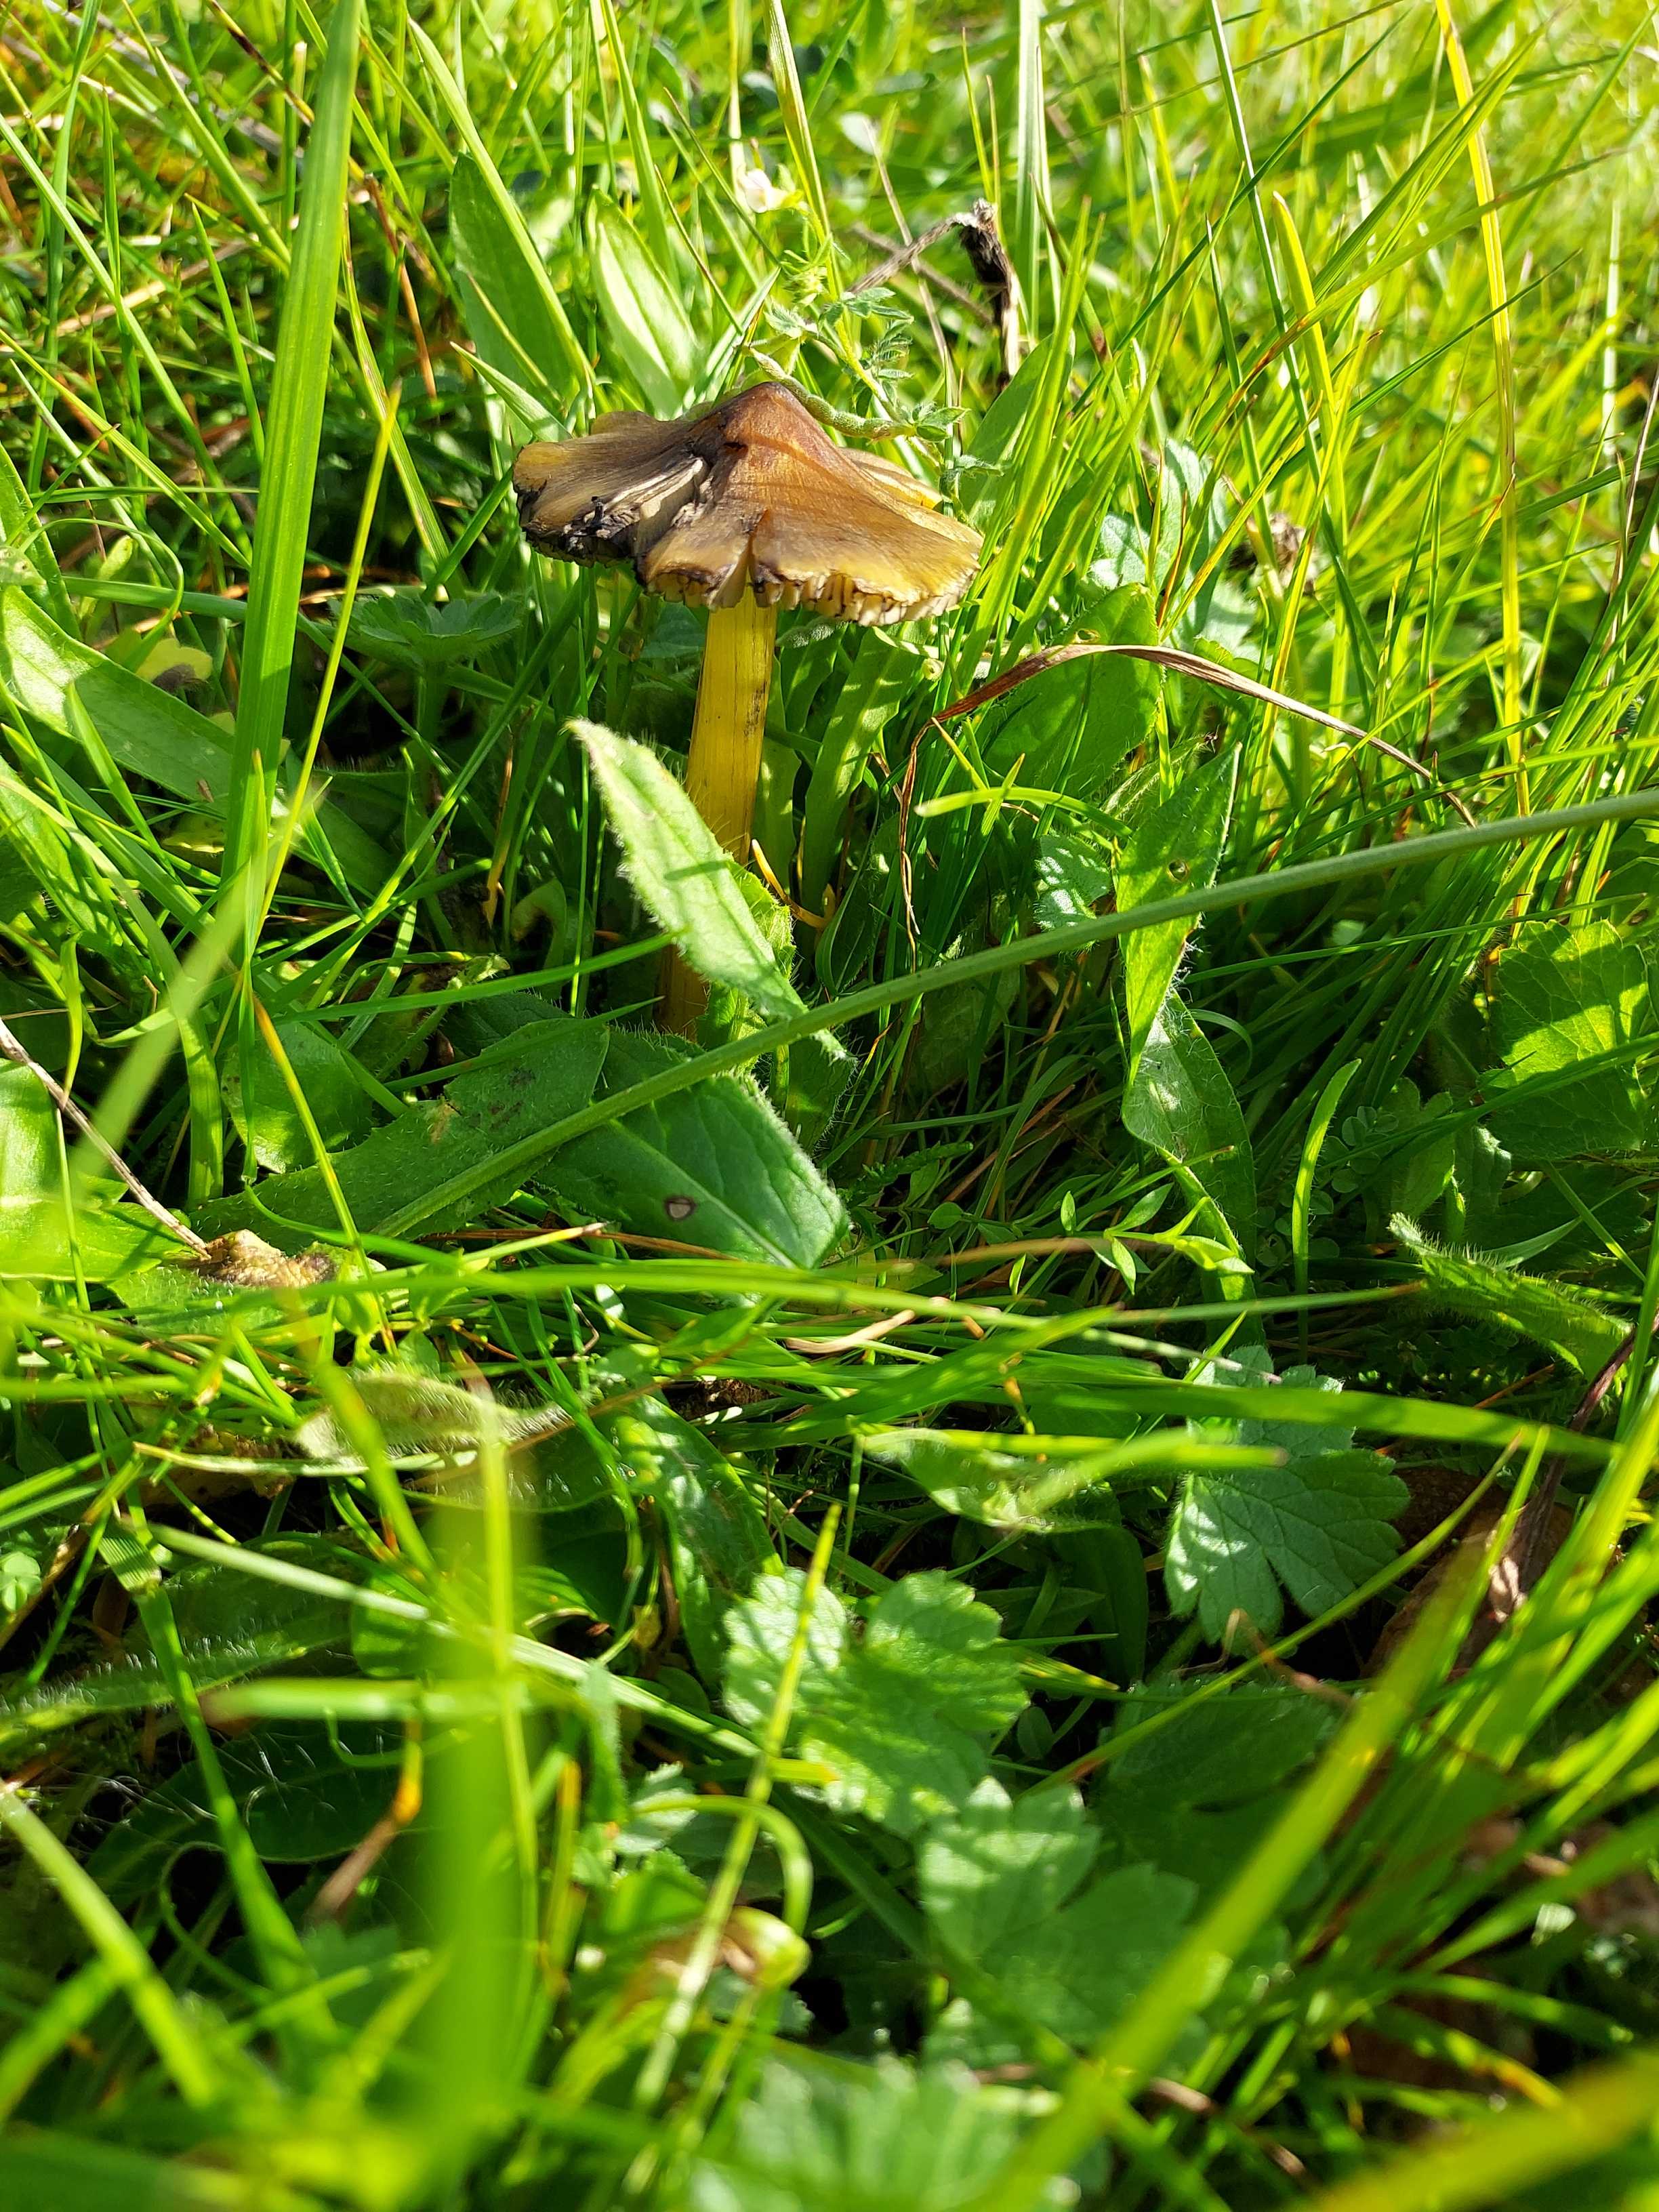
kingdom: Fungi
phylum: Basidiomycota
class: Agaricomycetes
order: Agaricales
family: Hygrophoraceae
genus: Hygrocybe
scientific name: Hygrocybe conica
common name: kegle-vokshat
